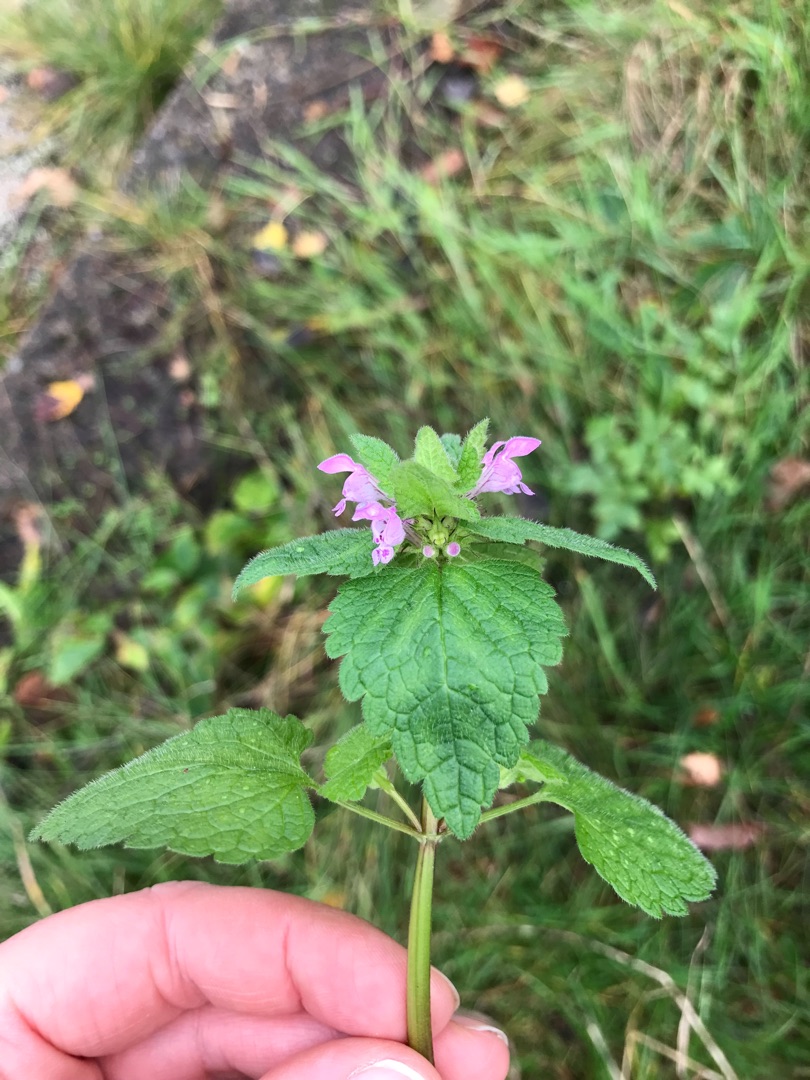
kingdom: Plantae
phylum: Tracheophyta
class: Magnoliopsida
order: Lamiales
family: Lamiaceae
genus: Lamium
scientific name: Lamium purpureum
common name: Rød tvetand
